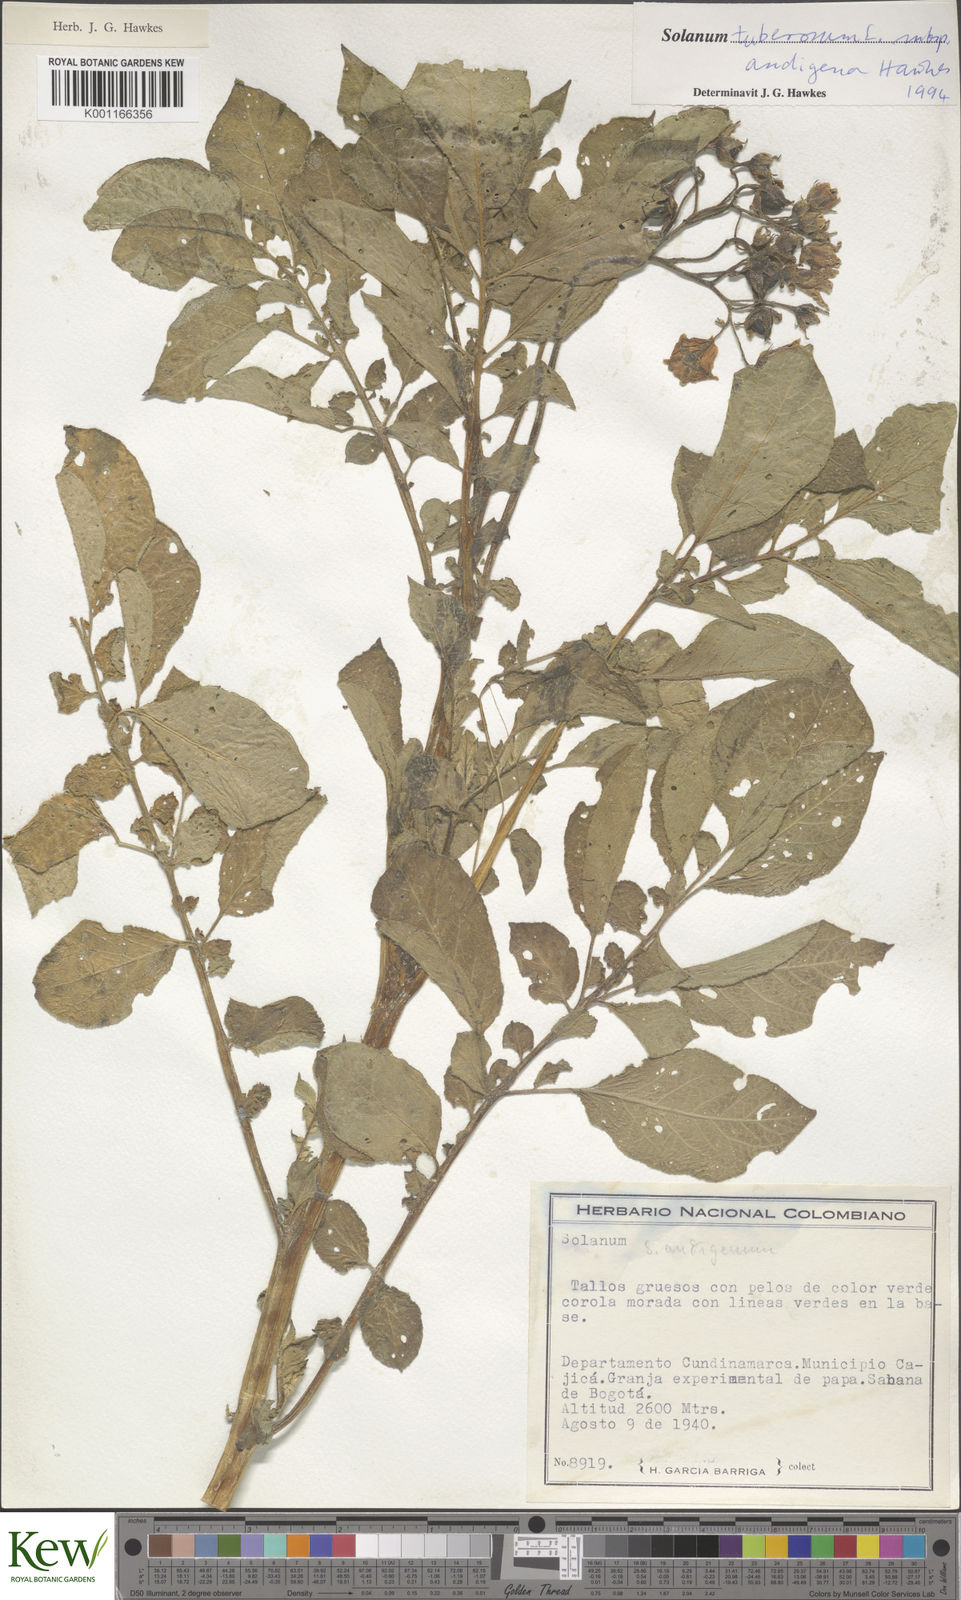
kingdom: Plantae
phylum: Tracheophyta
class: Magnoliopsida
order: Solanales
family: Solanaceae
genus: Solanum
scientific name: Solanum tuberosum
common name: Potato
